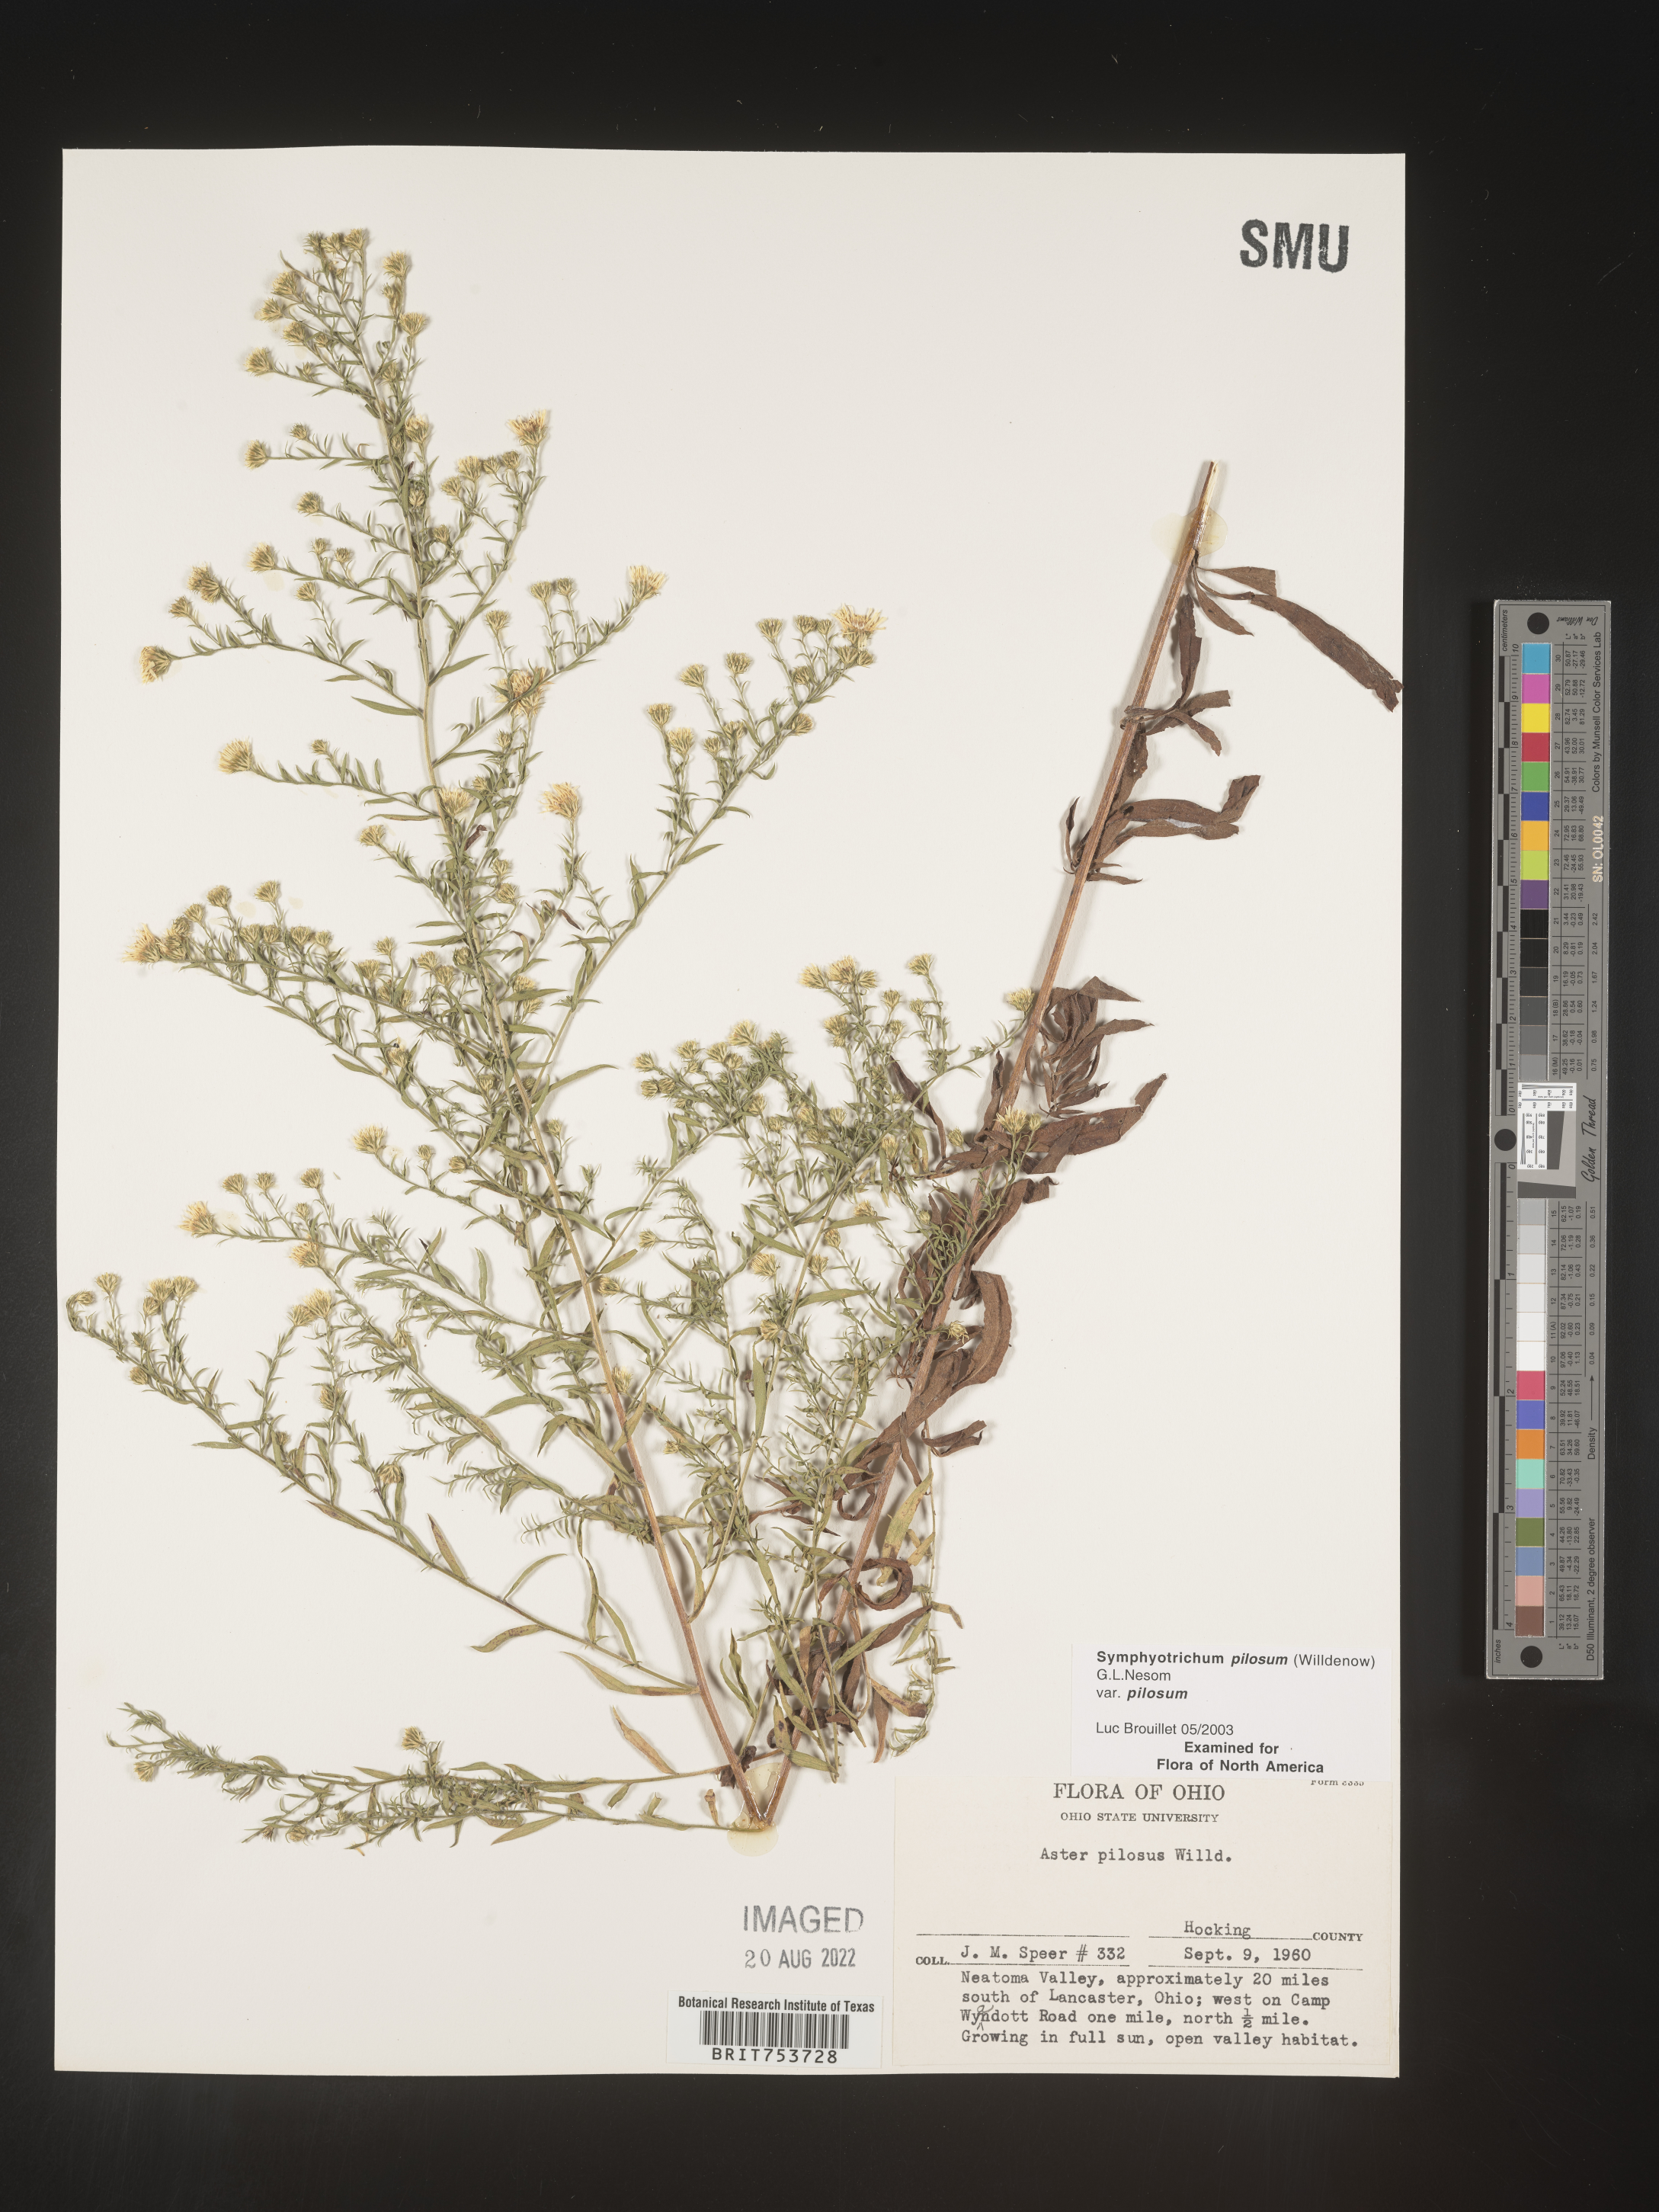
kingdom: Plantae
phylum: Tracheophyta
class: Magnoliopsida
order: Asterales
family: Asteraceae
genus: Symphyotrichum
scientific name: Symphyotrichum pilosum
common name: Awl aster
